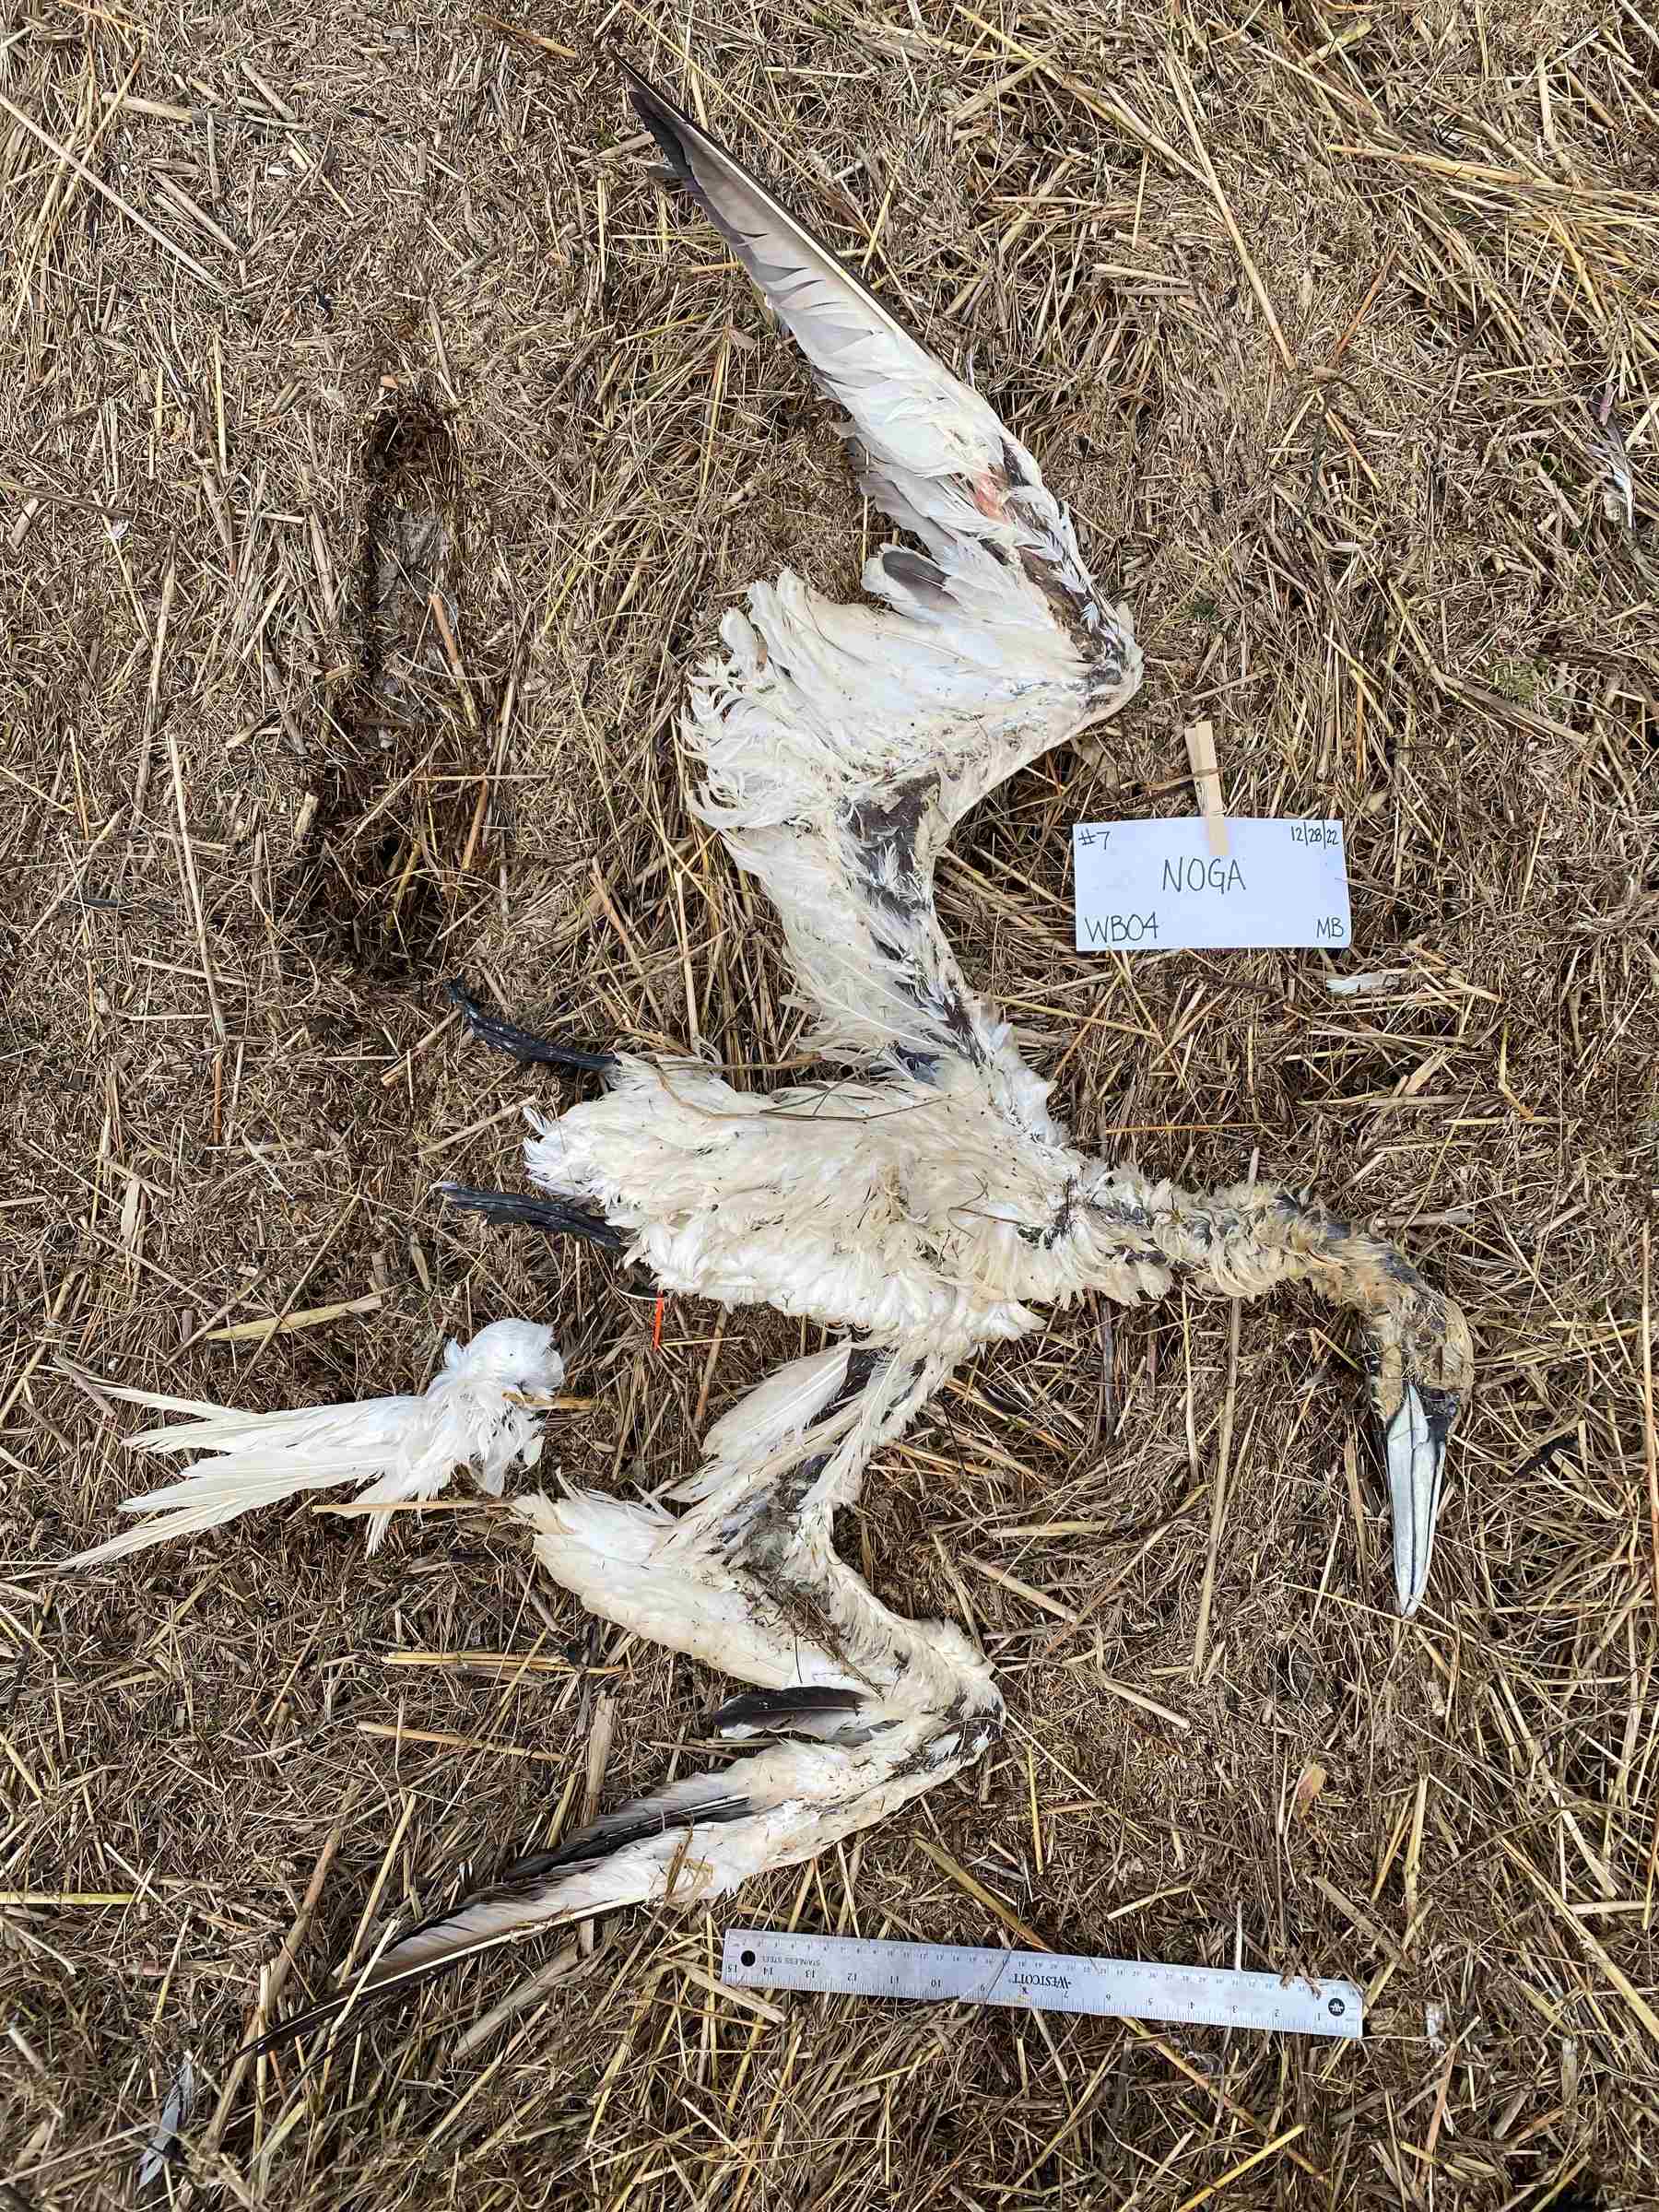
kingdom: Animalia
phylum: Chordata
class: Aves
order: Suliformes
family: Sulidae
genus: Morus
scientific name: Morus bassanus
